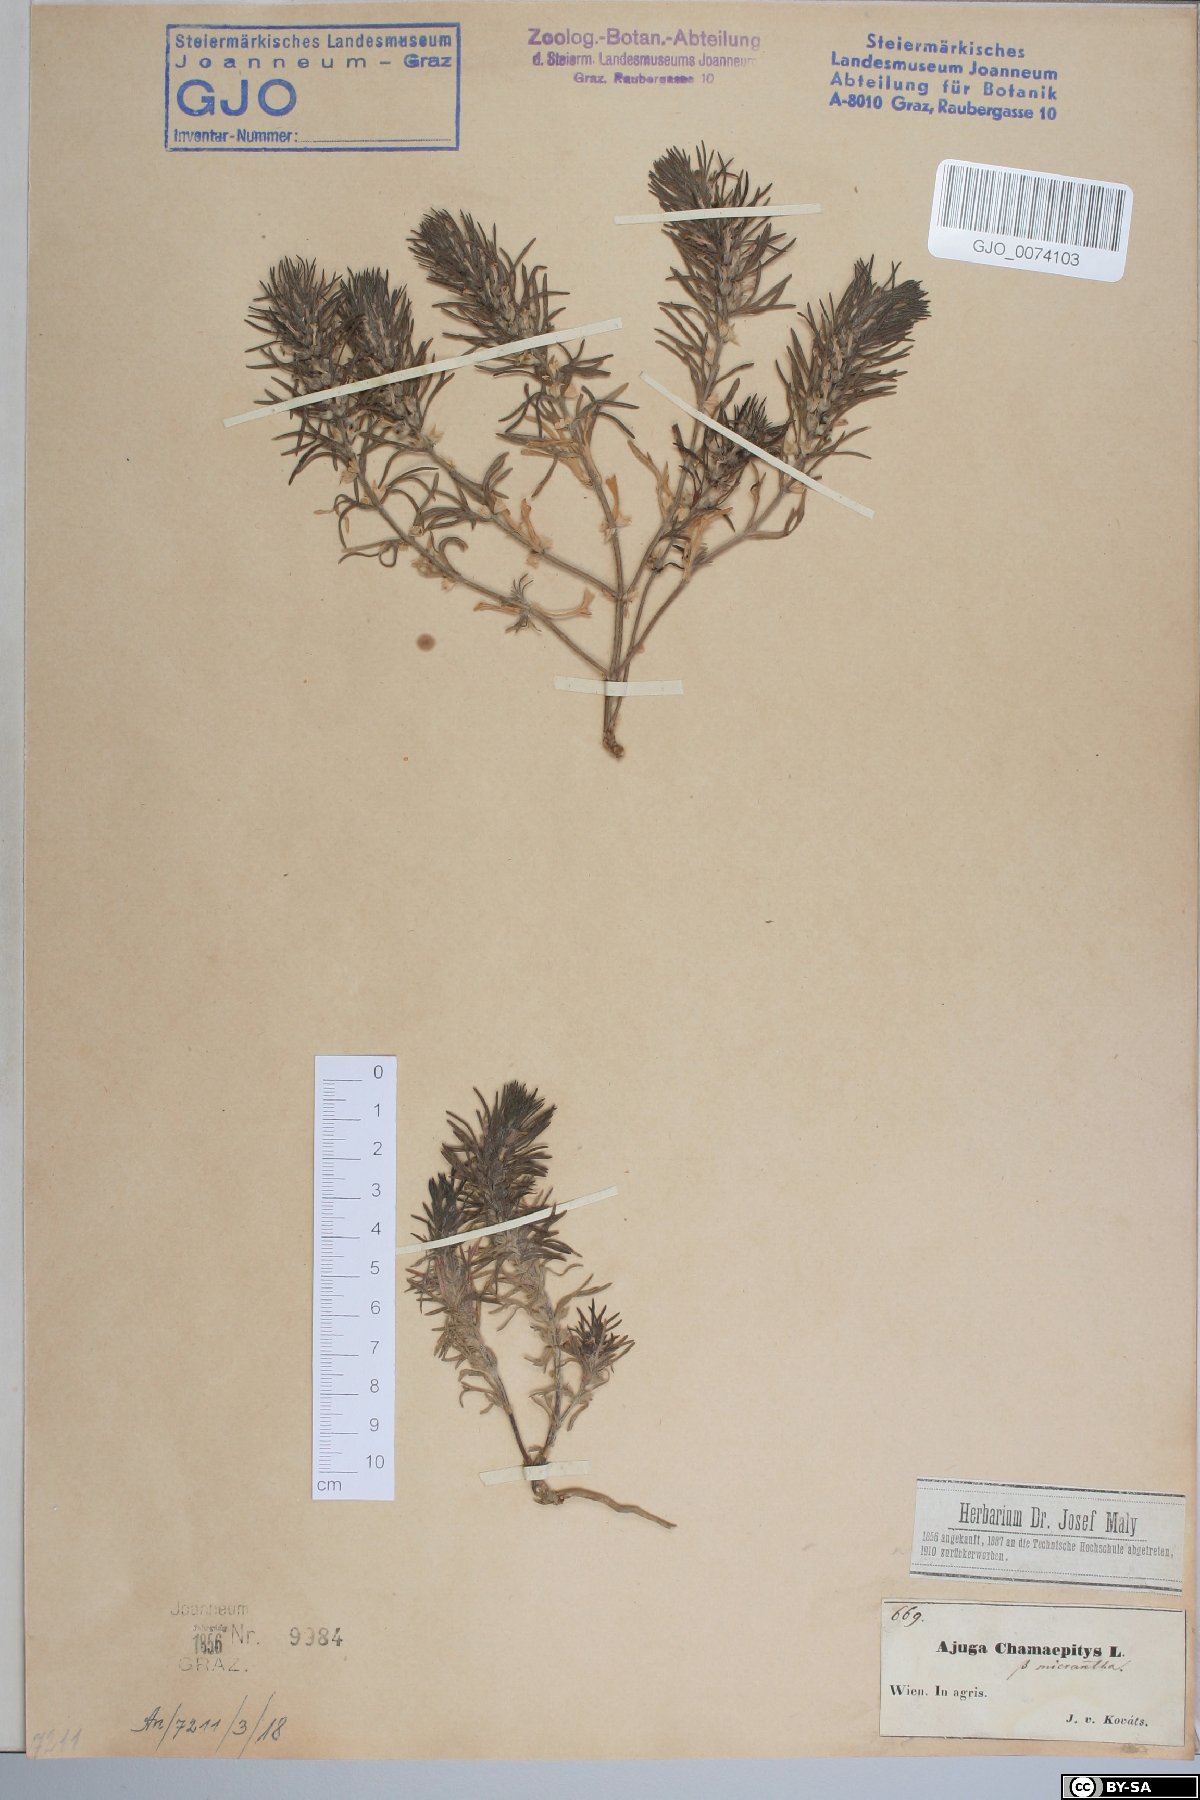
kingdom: Plantae
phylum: Tracheophyta
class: Magnoliopsida
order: Lamiales
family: Lamiaceae
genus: Ajuga
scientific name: Ajuga chamaepitys
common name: Ground-pine
